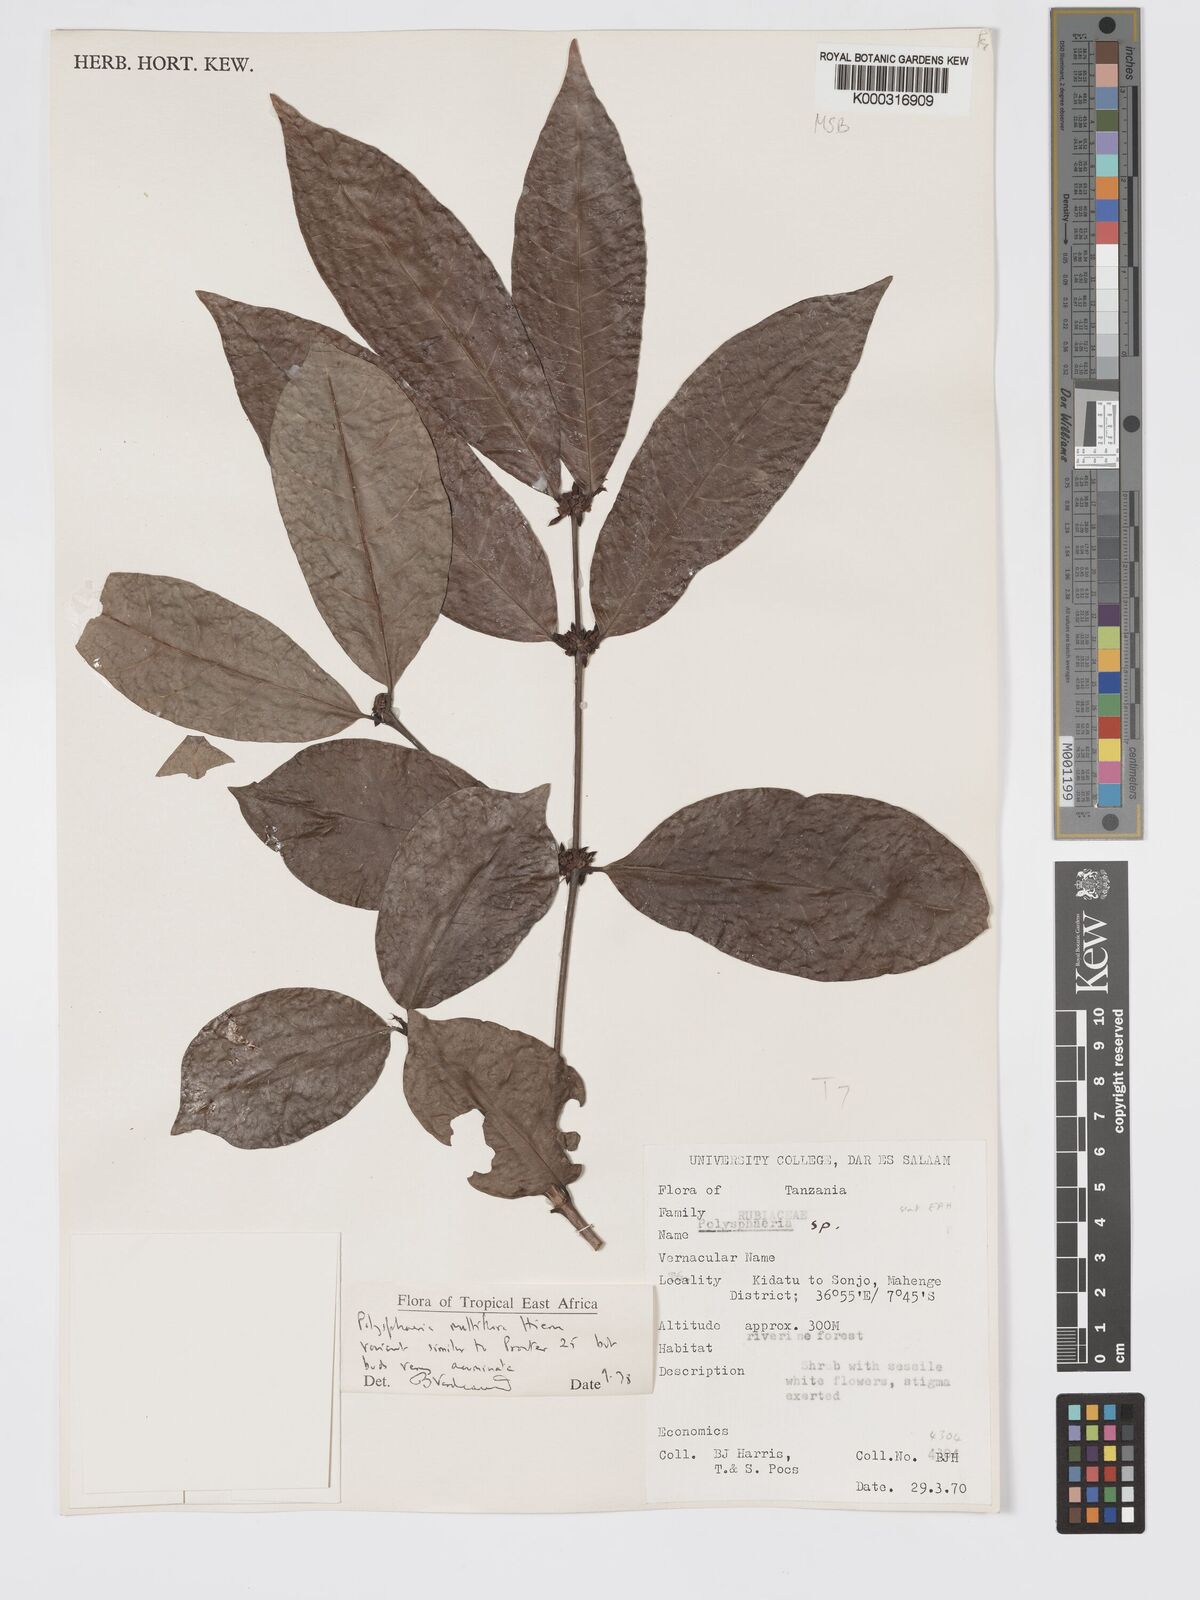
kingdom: Plantae
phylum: Tracheophyta
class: Magnoliopsida
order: Gentianales
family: Rubiaceae
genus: Polysphaeria
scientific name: Polysphaeria multiflora
